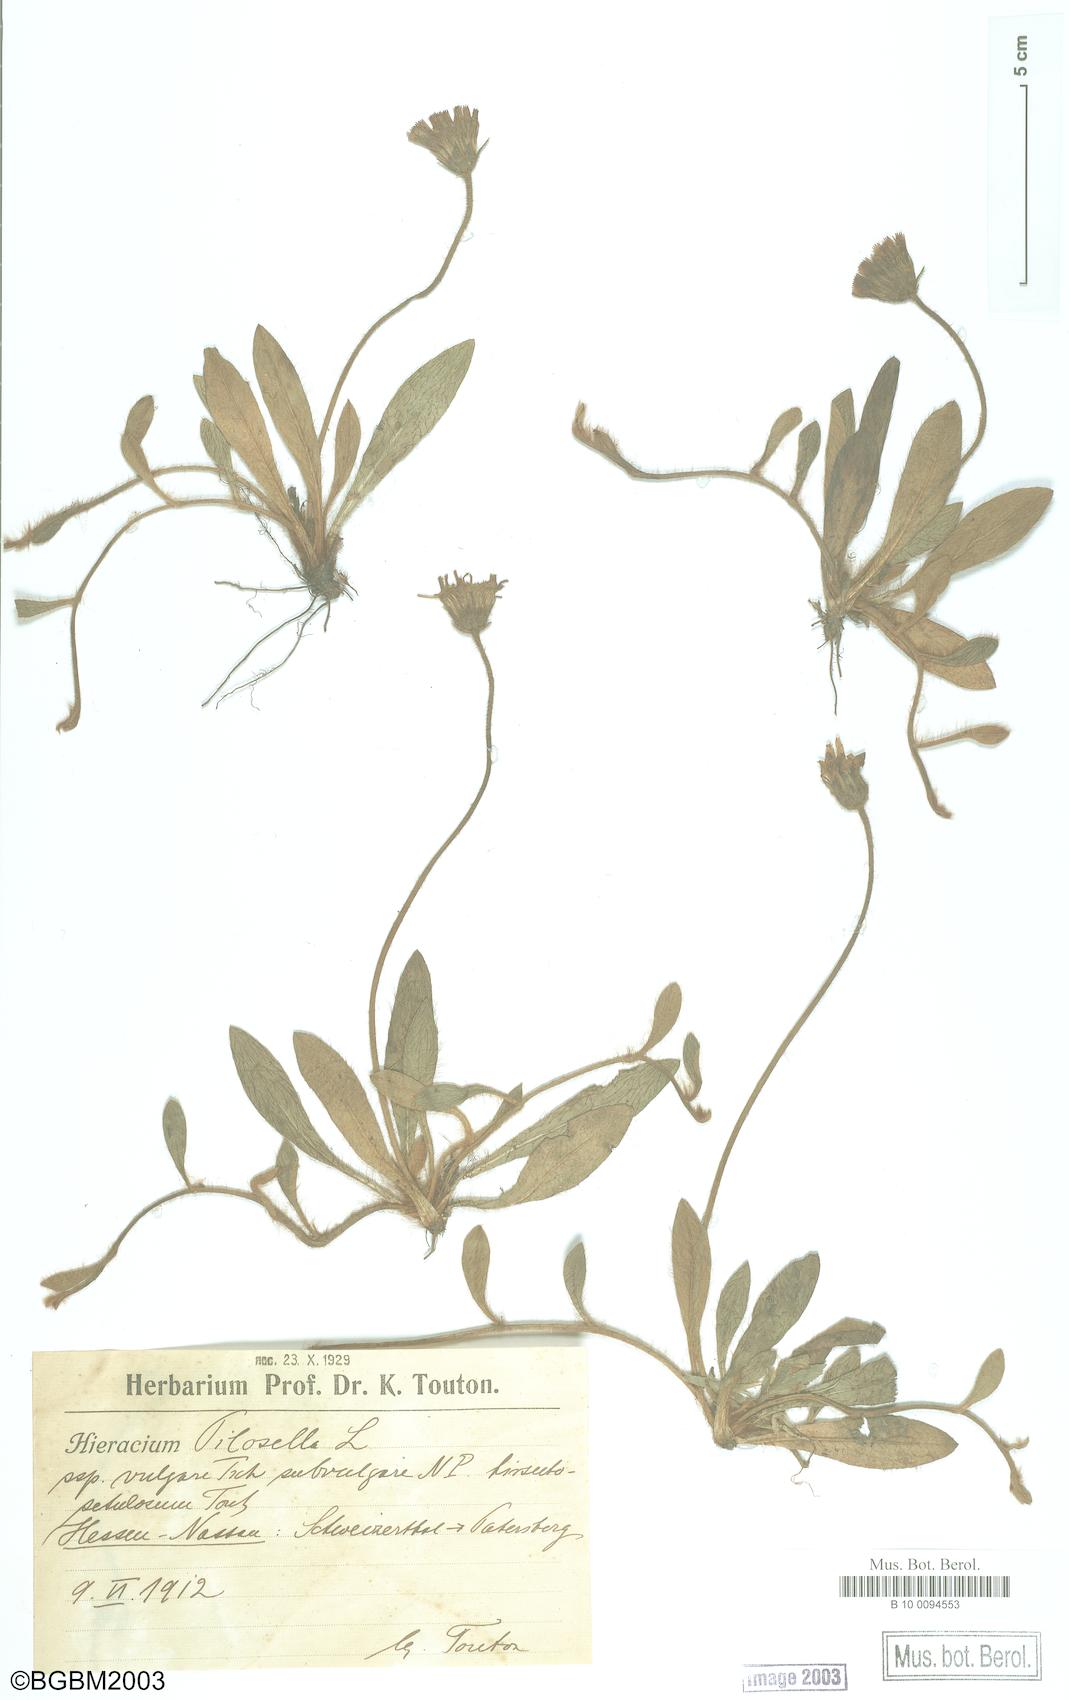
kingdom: Plantae
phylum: Tracheophyta
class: Magnoliopsida
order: Asterales
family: Asteraceae
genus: Pilosella
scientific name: Pilosella officinarum
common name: Mouse-ear hawkweed
